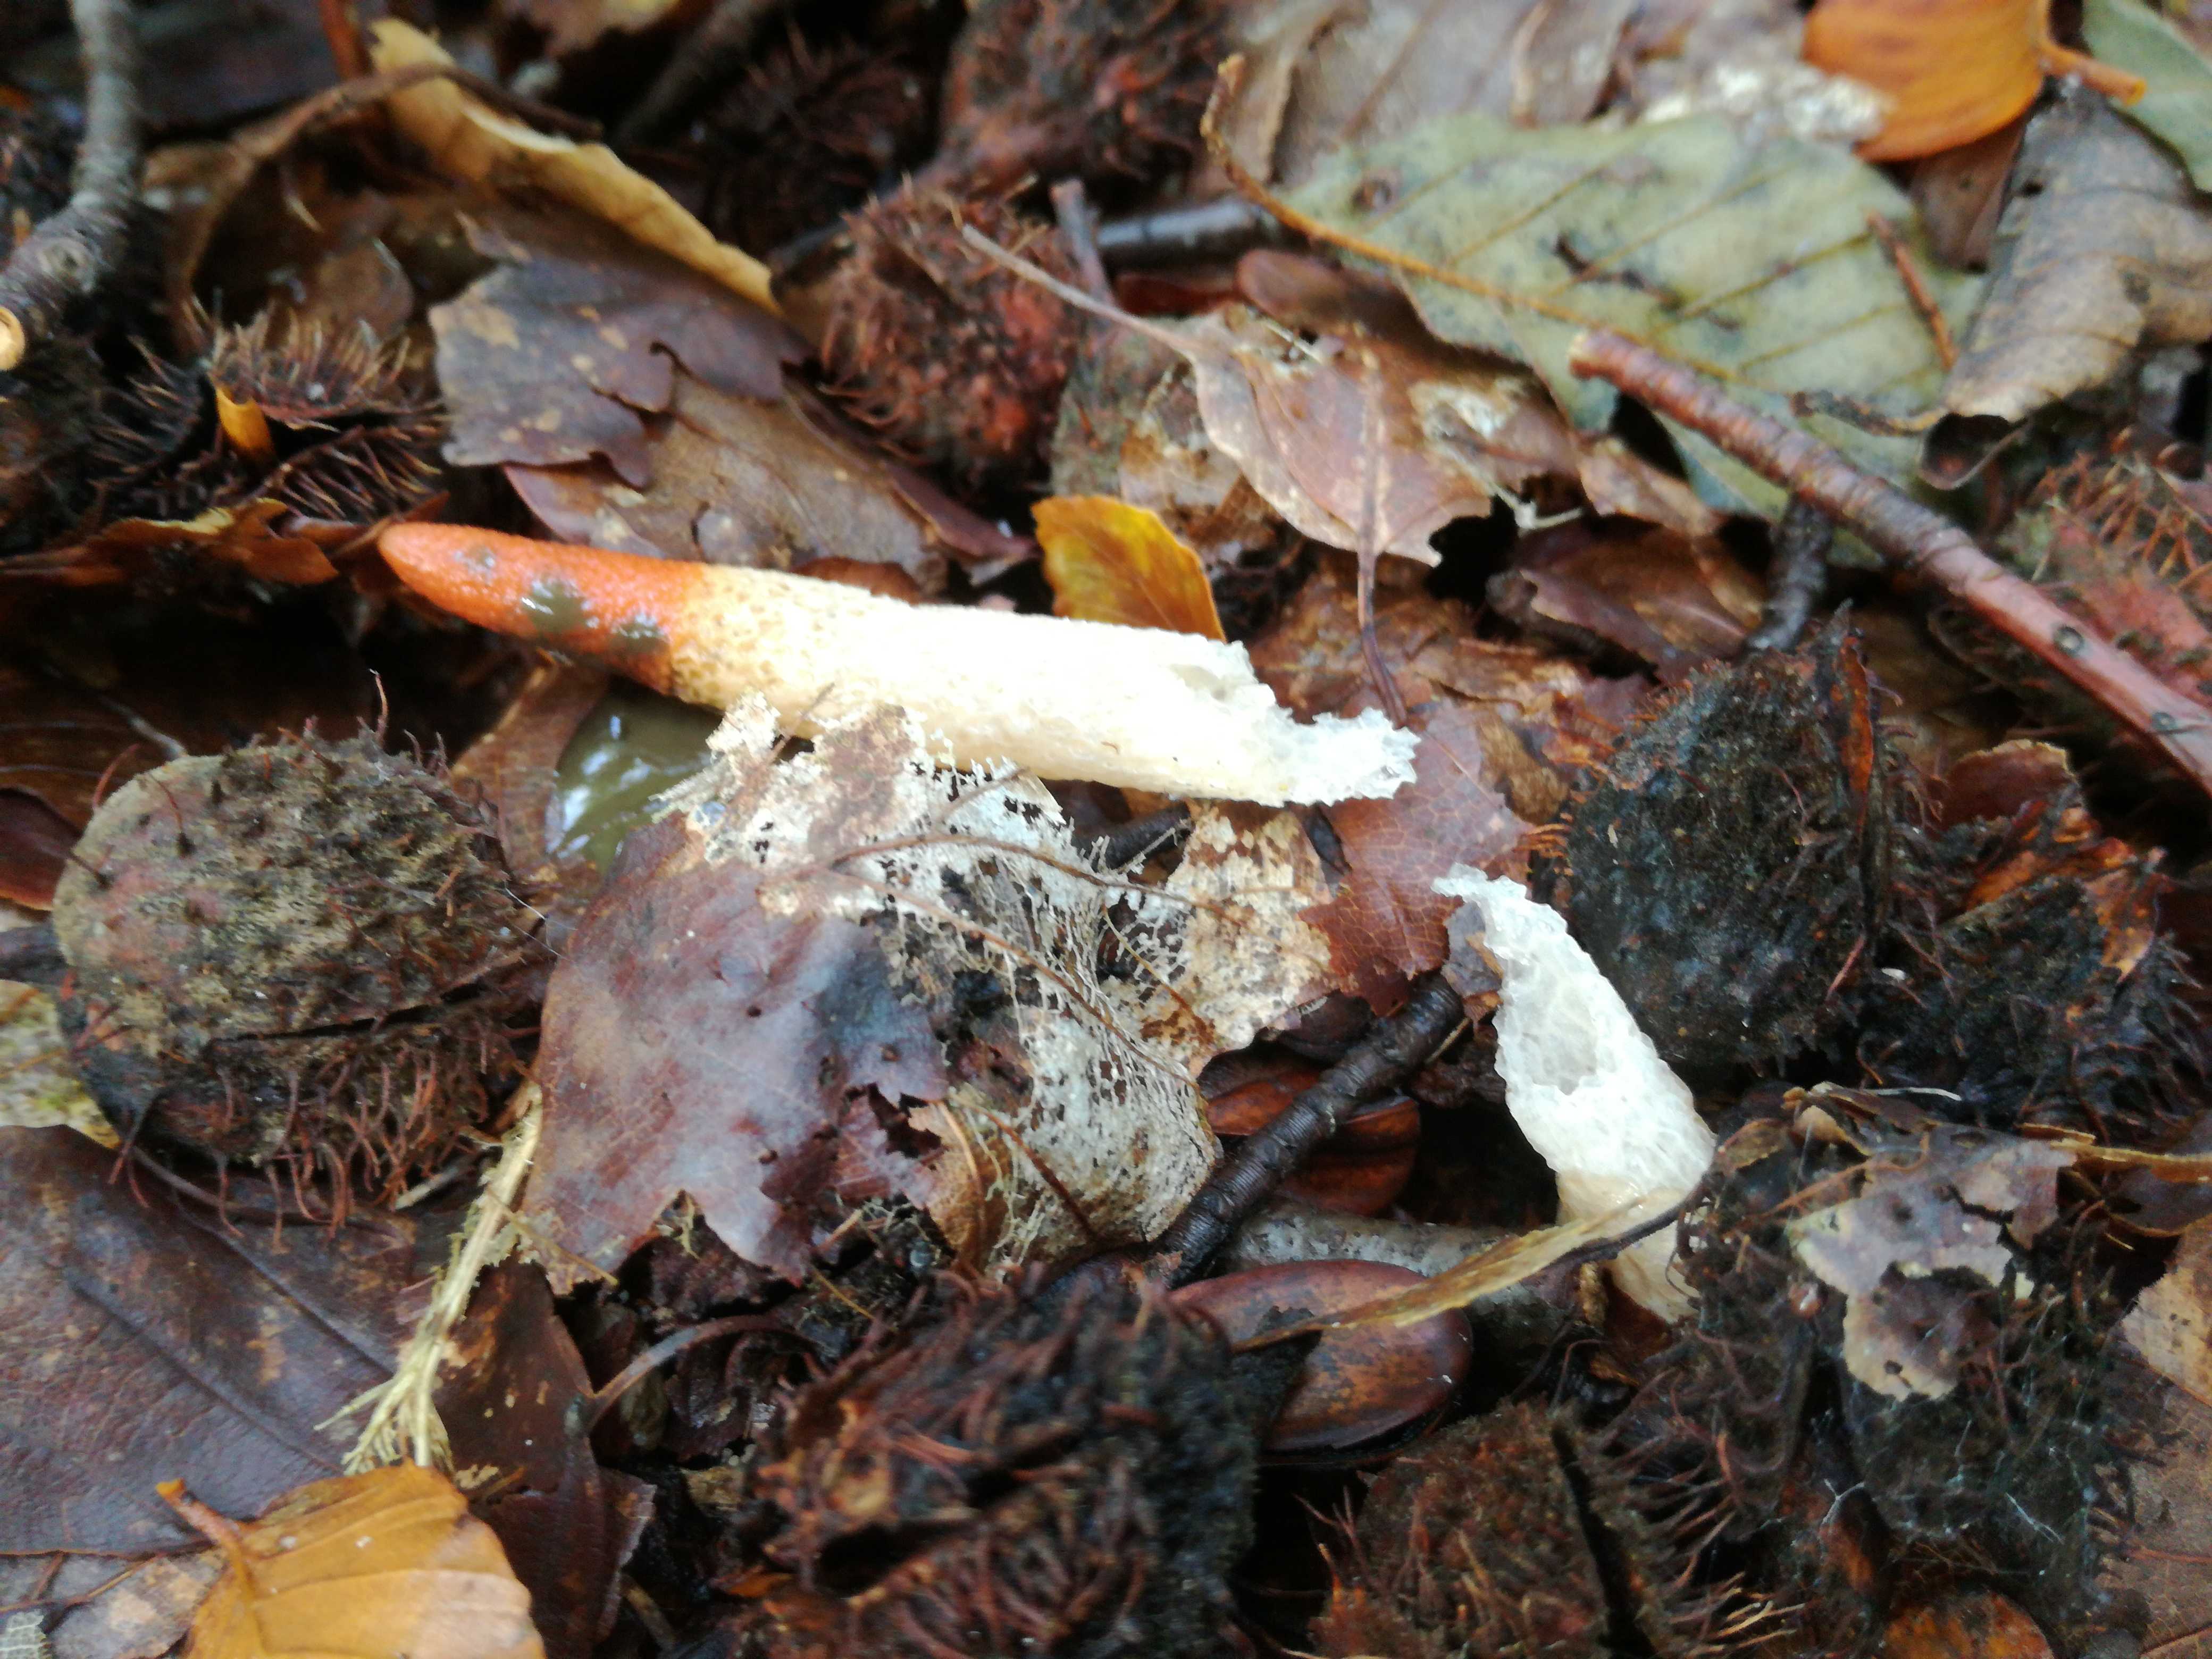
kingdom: Fungi
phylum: Basidiomycota
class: Agaricomycetes
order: Phallales
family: Phallaceae
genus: Mutinus
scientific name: Mutinus caninus
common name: hunde-stinksvamp
